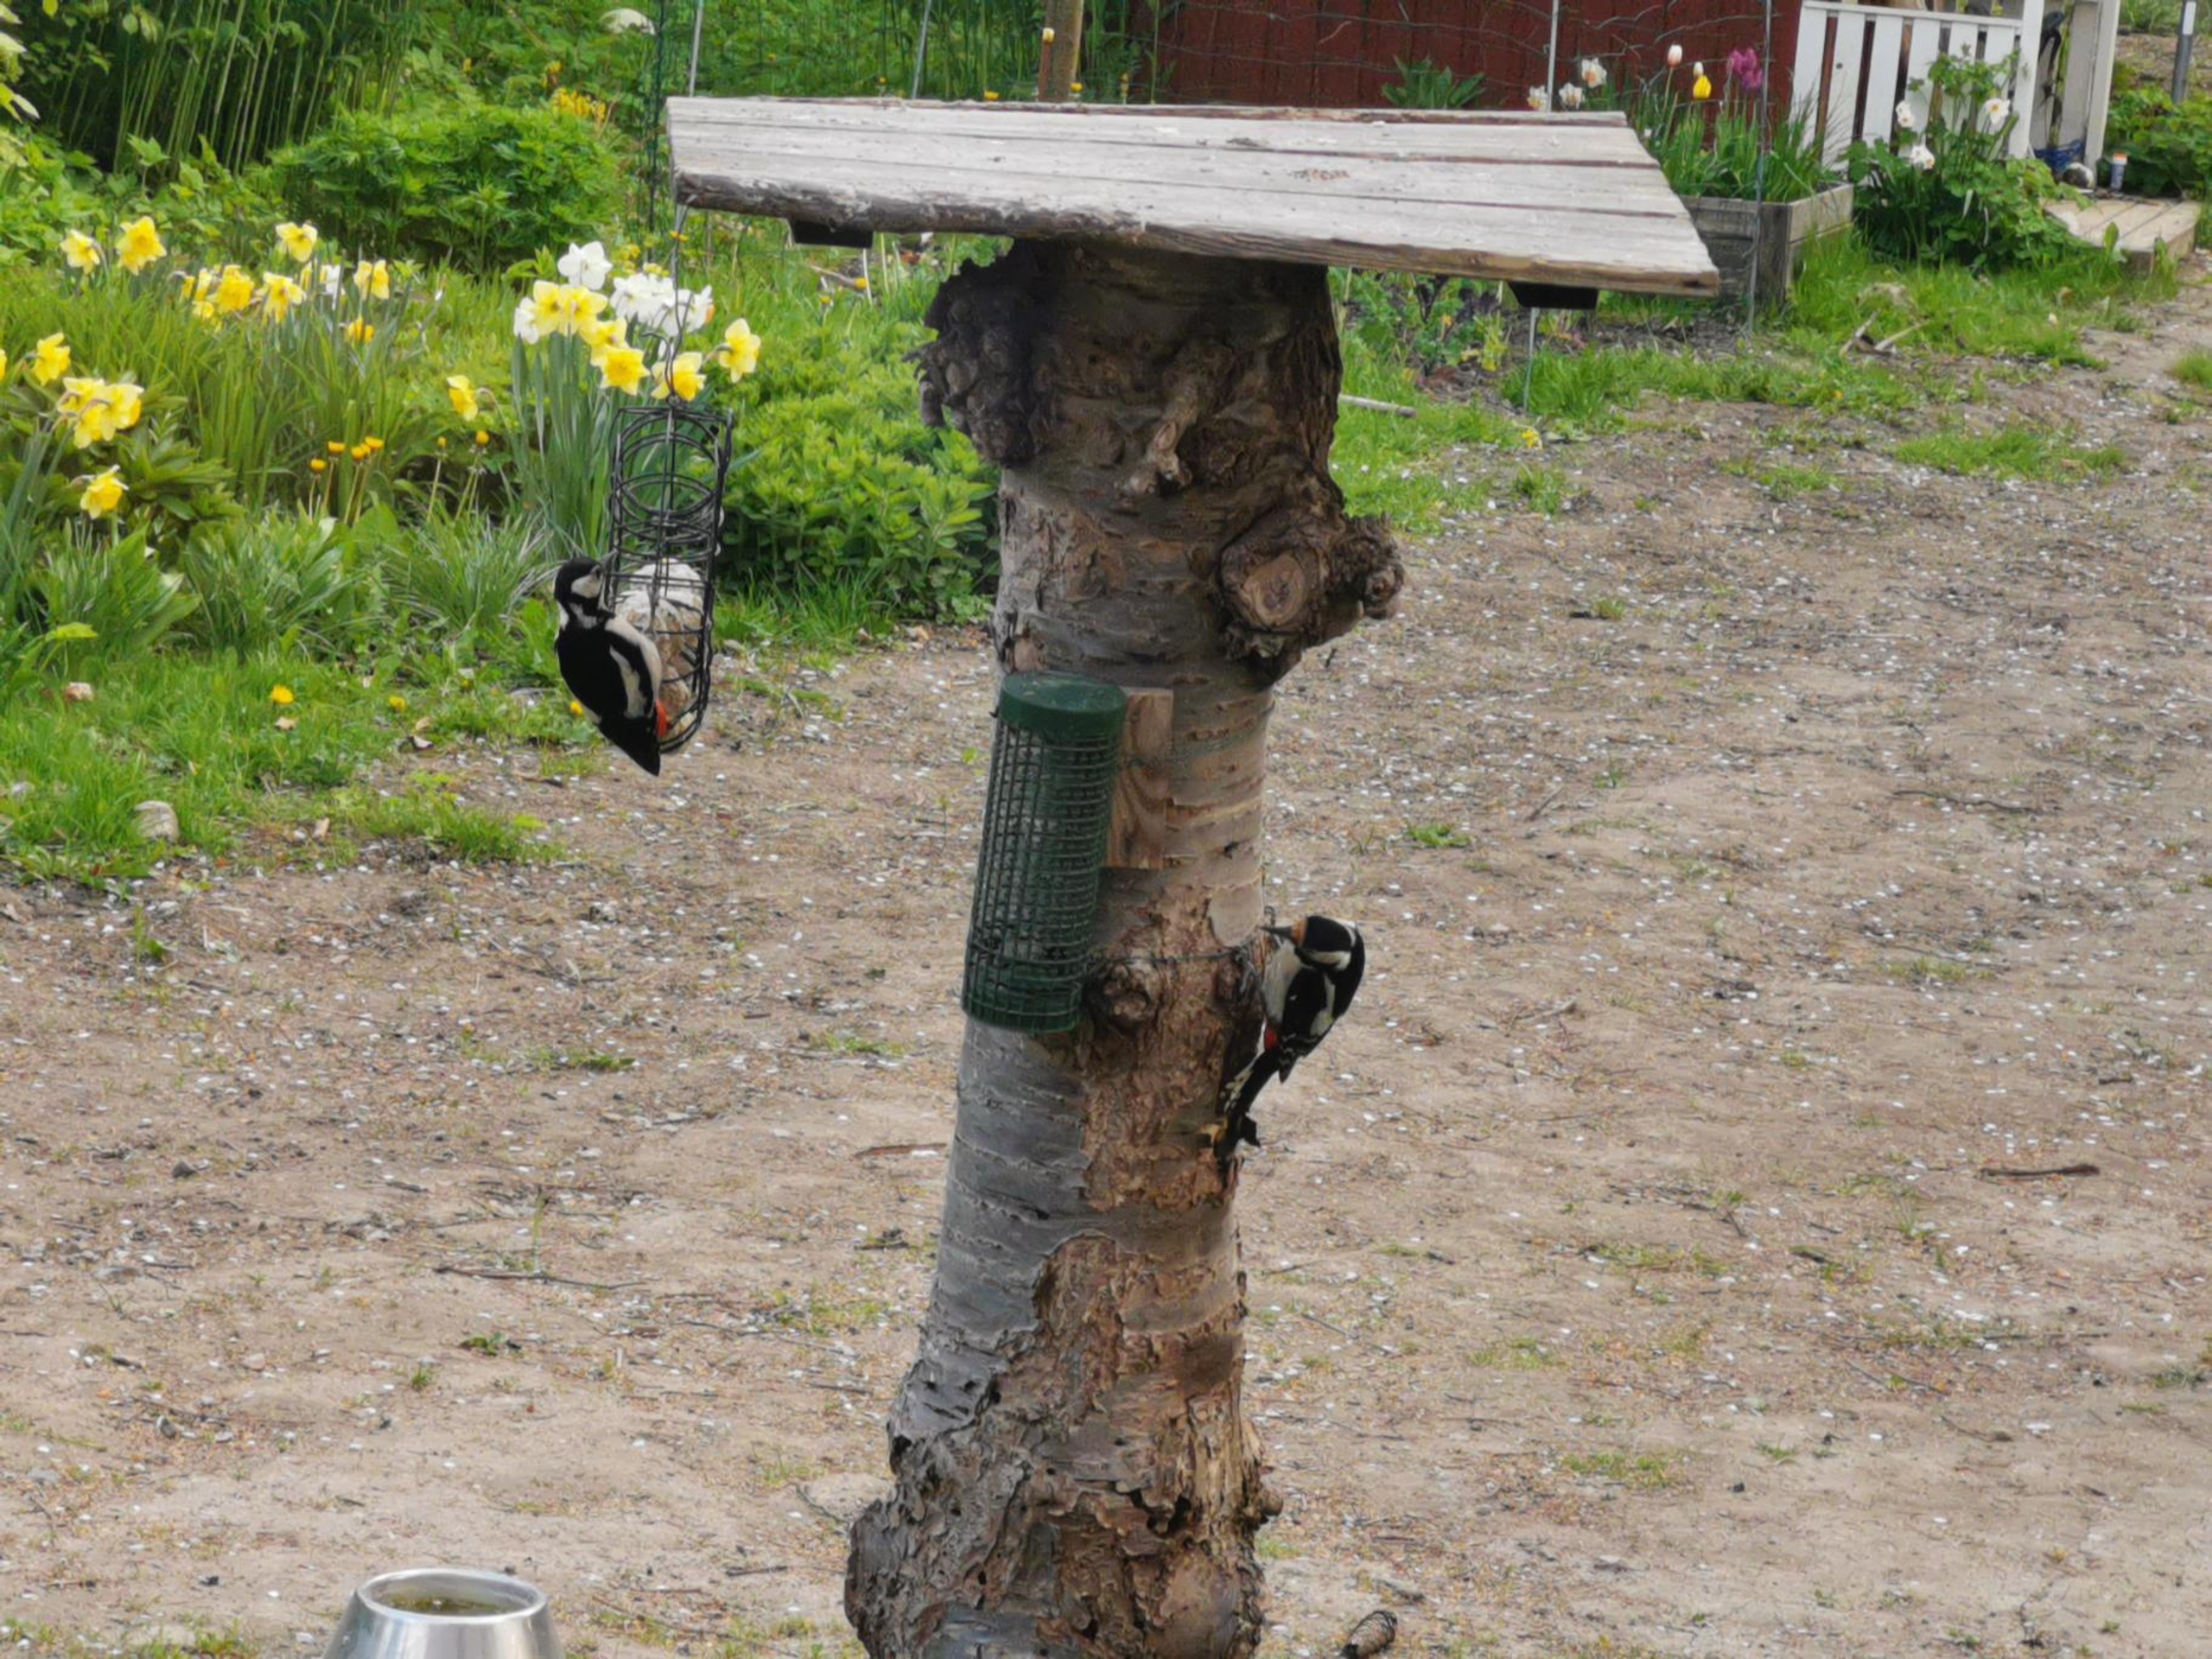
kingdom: Animalia
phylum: Chordata
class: Aves
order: Piciformes
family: Picidae
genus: Dendrocopos
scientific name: Dendrocopos major
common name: Stor flagspætte
